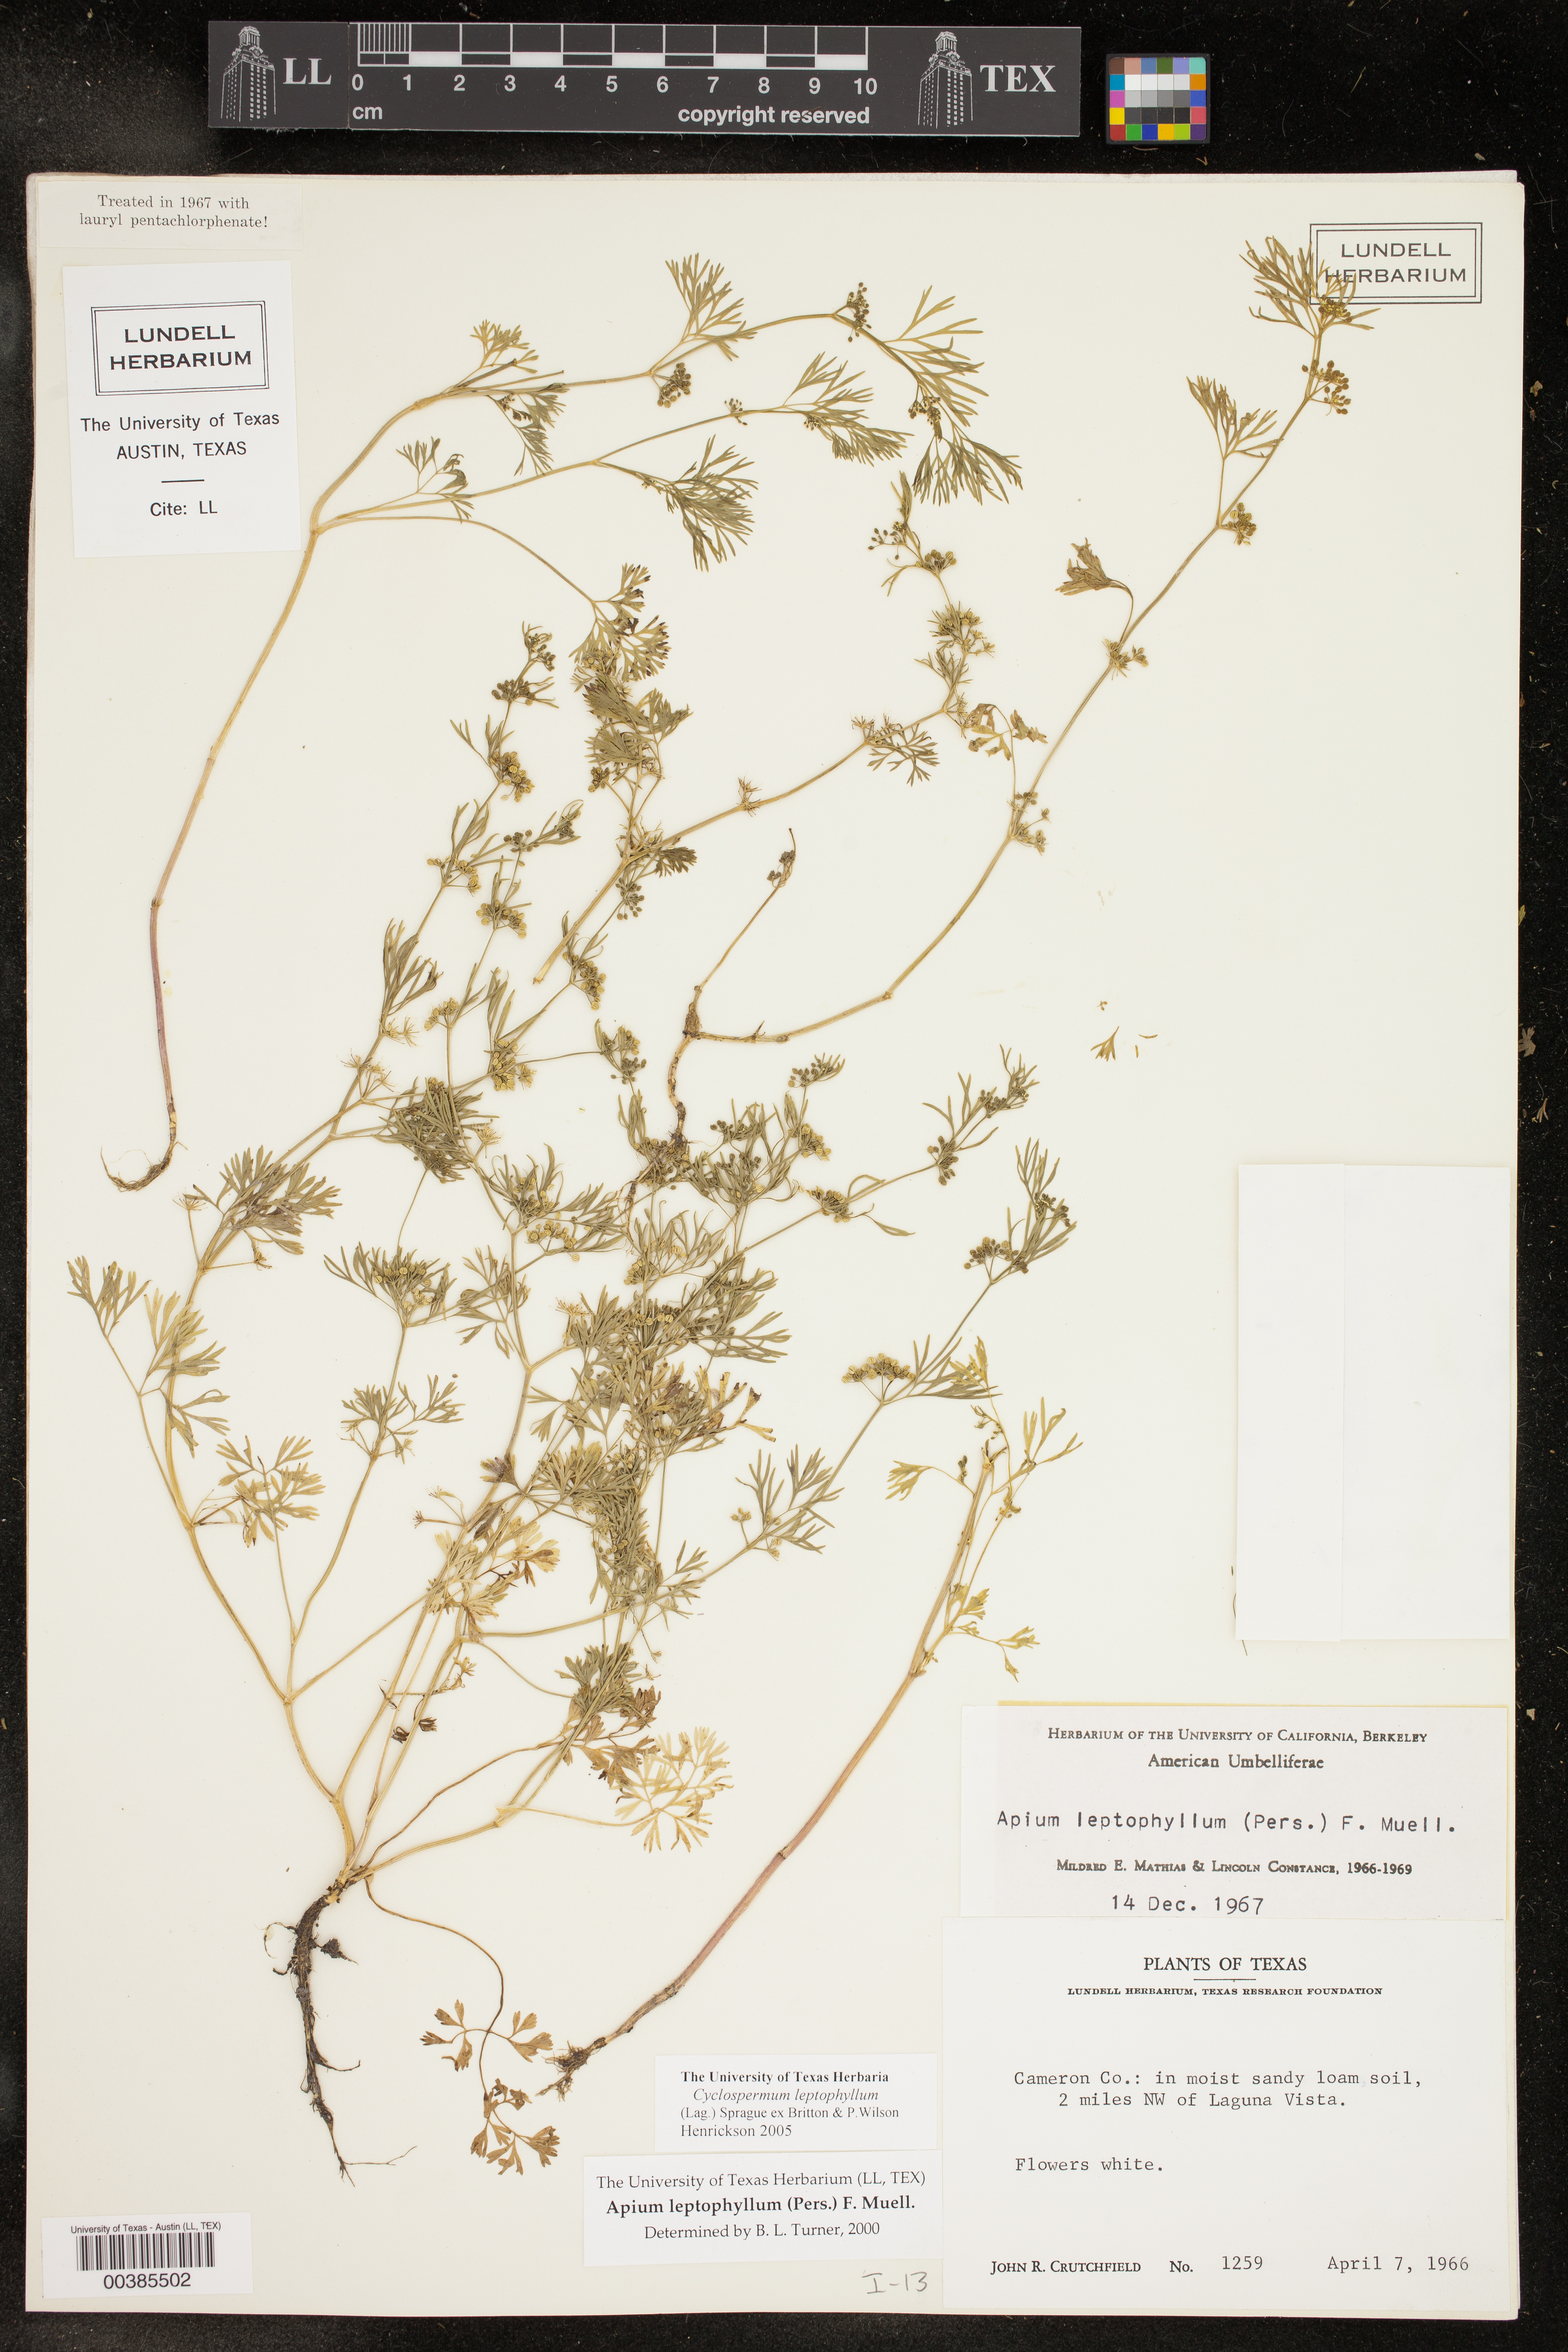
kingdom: Plantae
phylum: Tracheophyta
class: Magnoliopsida
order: Apiales
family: Apiaceae
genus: Cyclospermum
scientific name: Cyclospermum leptophyllum
